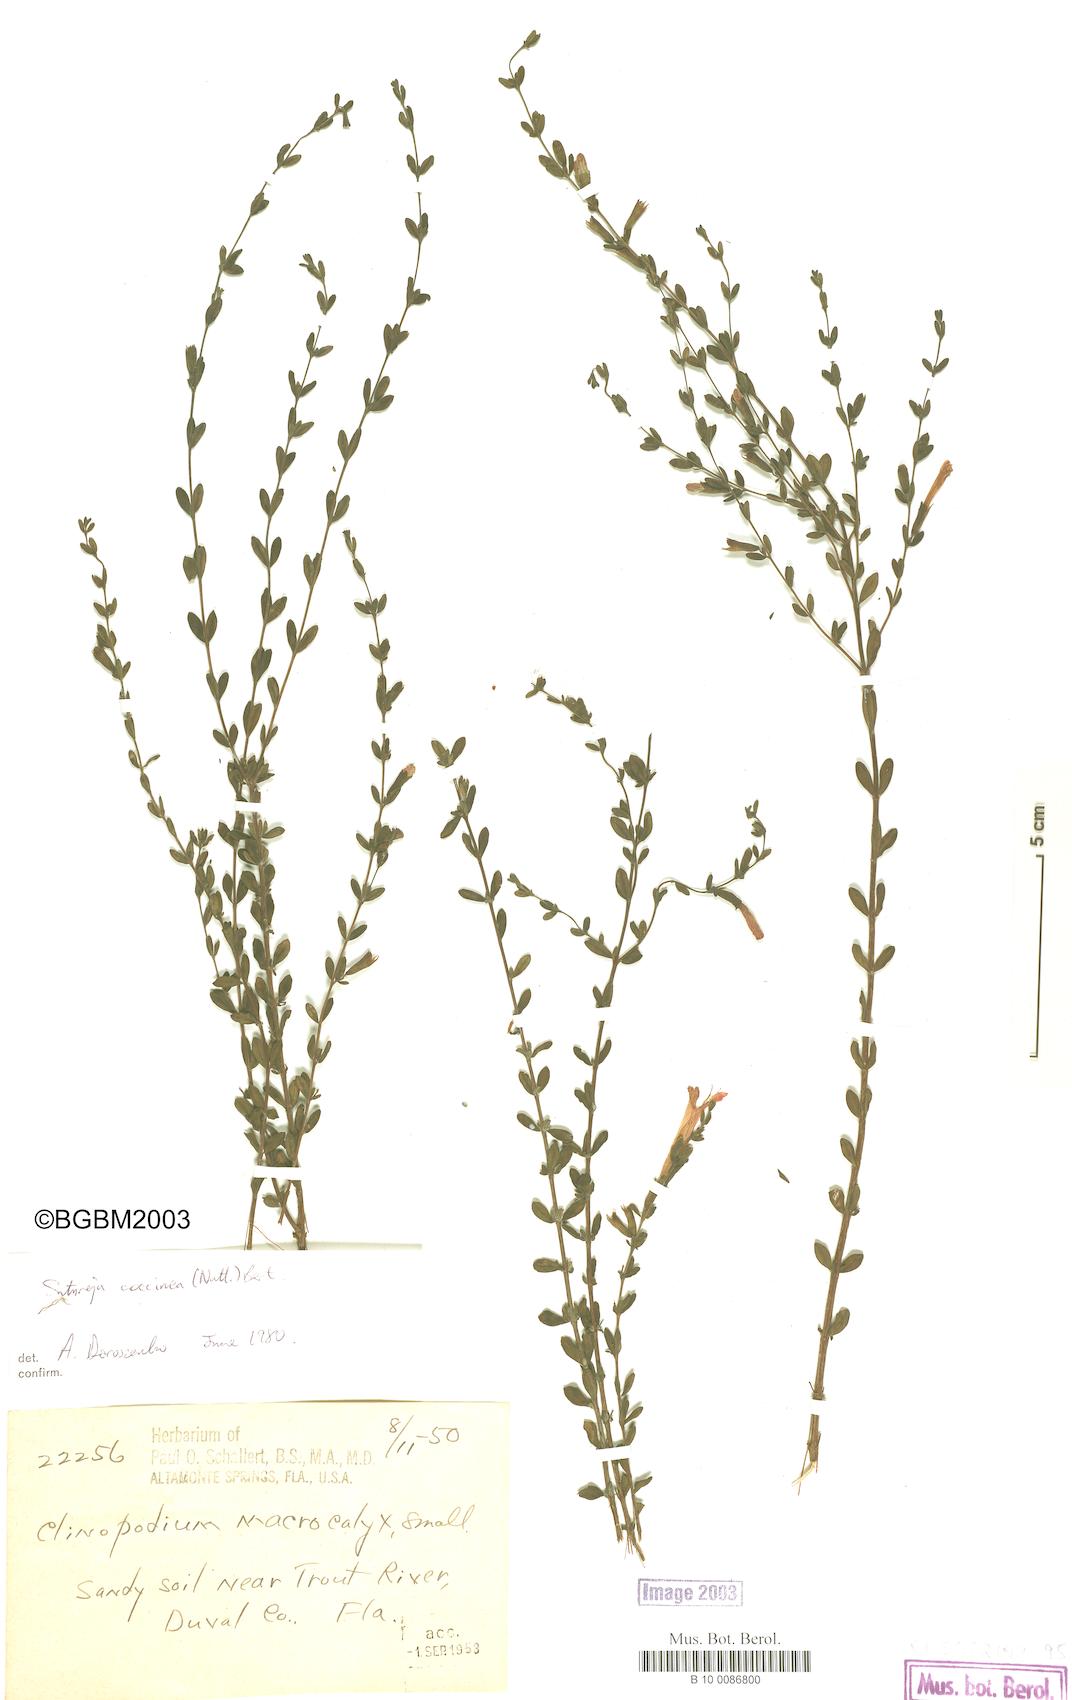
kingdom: Plantae
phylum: Tracheophyta
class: Magnoliopsida
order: Lamiales
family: Lamiaceae
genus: Clinopodium
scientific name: Clinopodium coccineum
